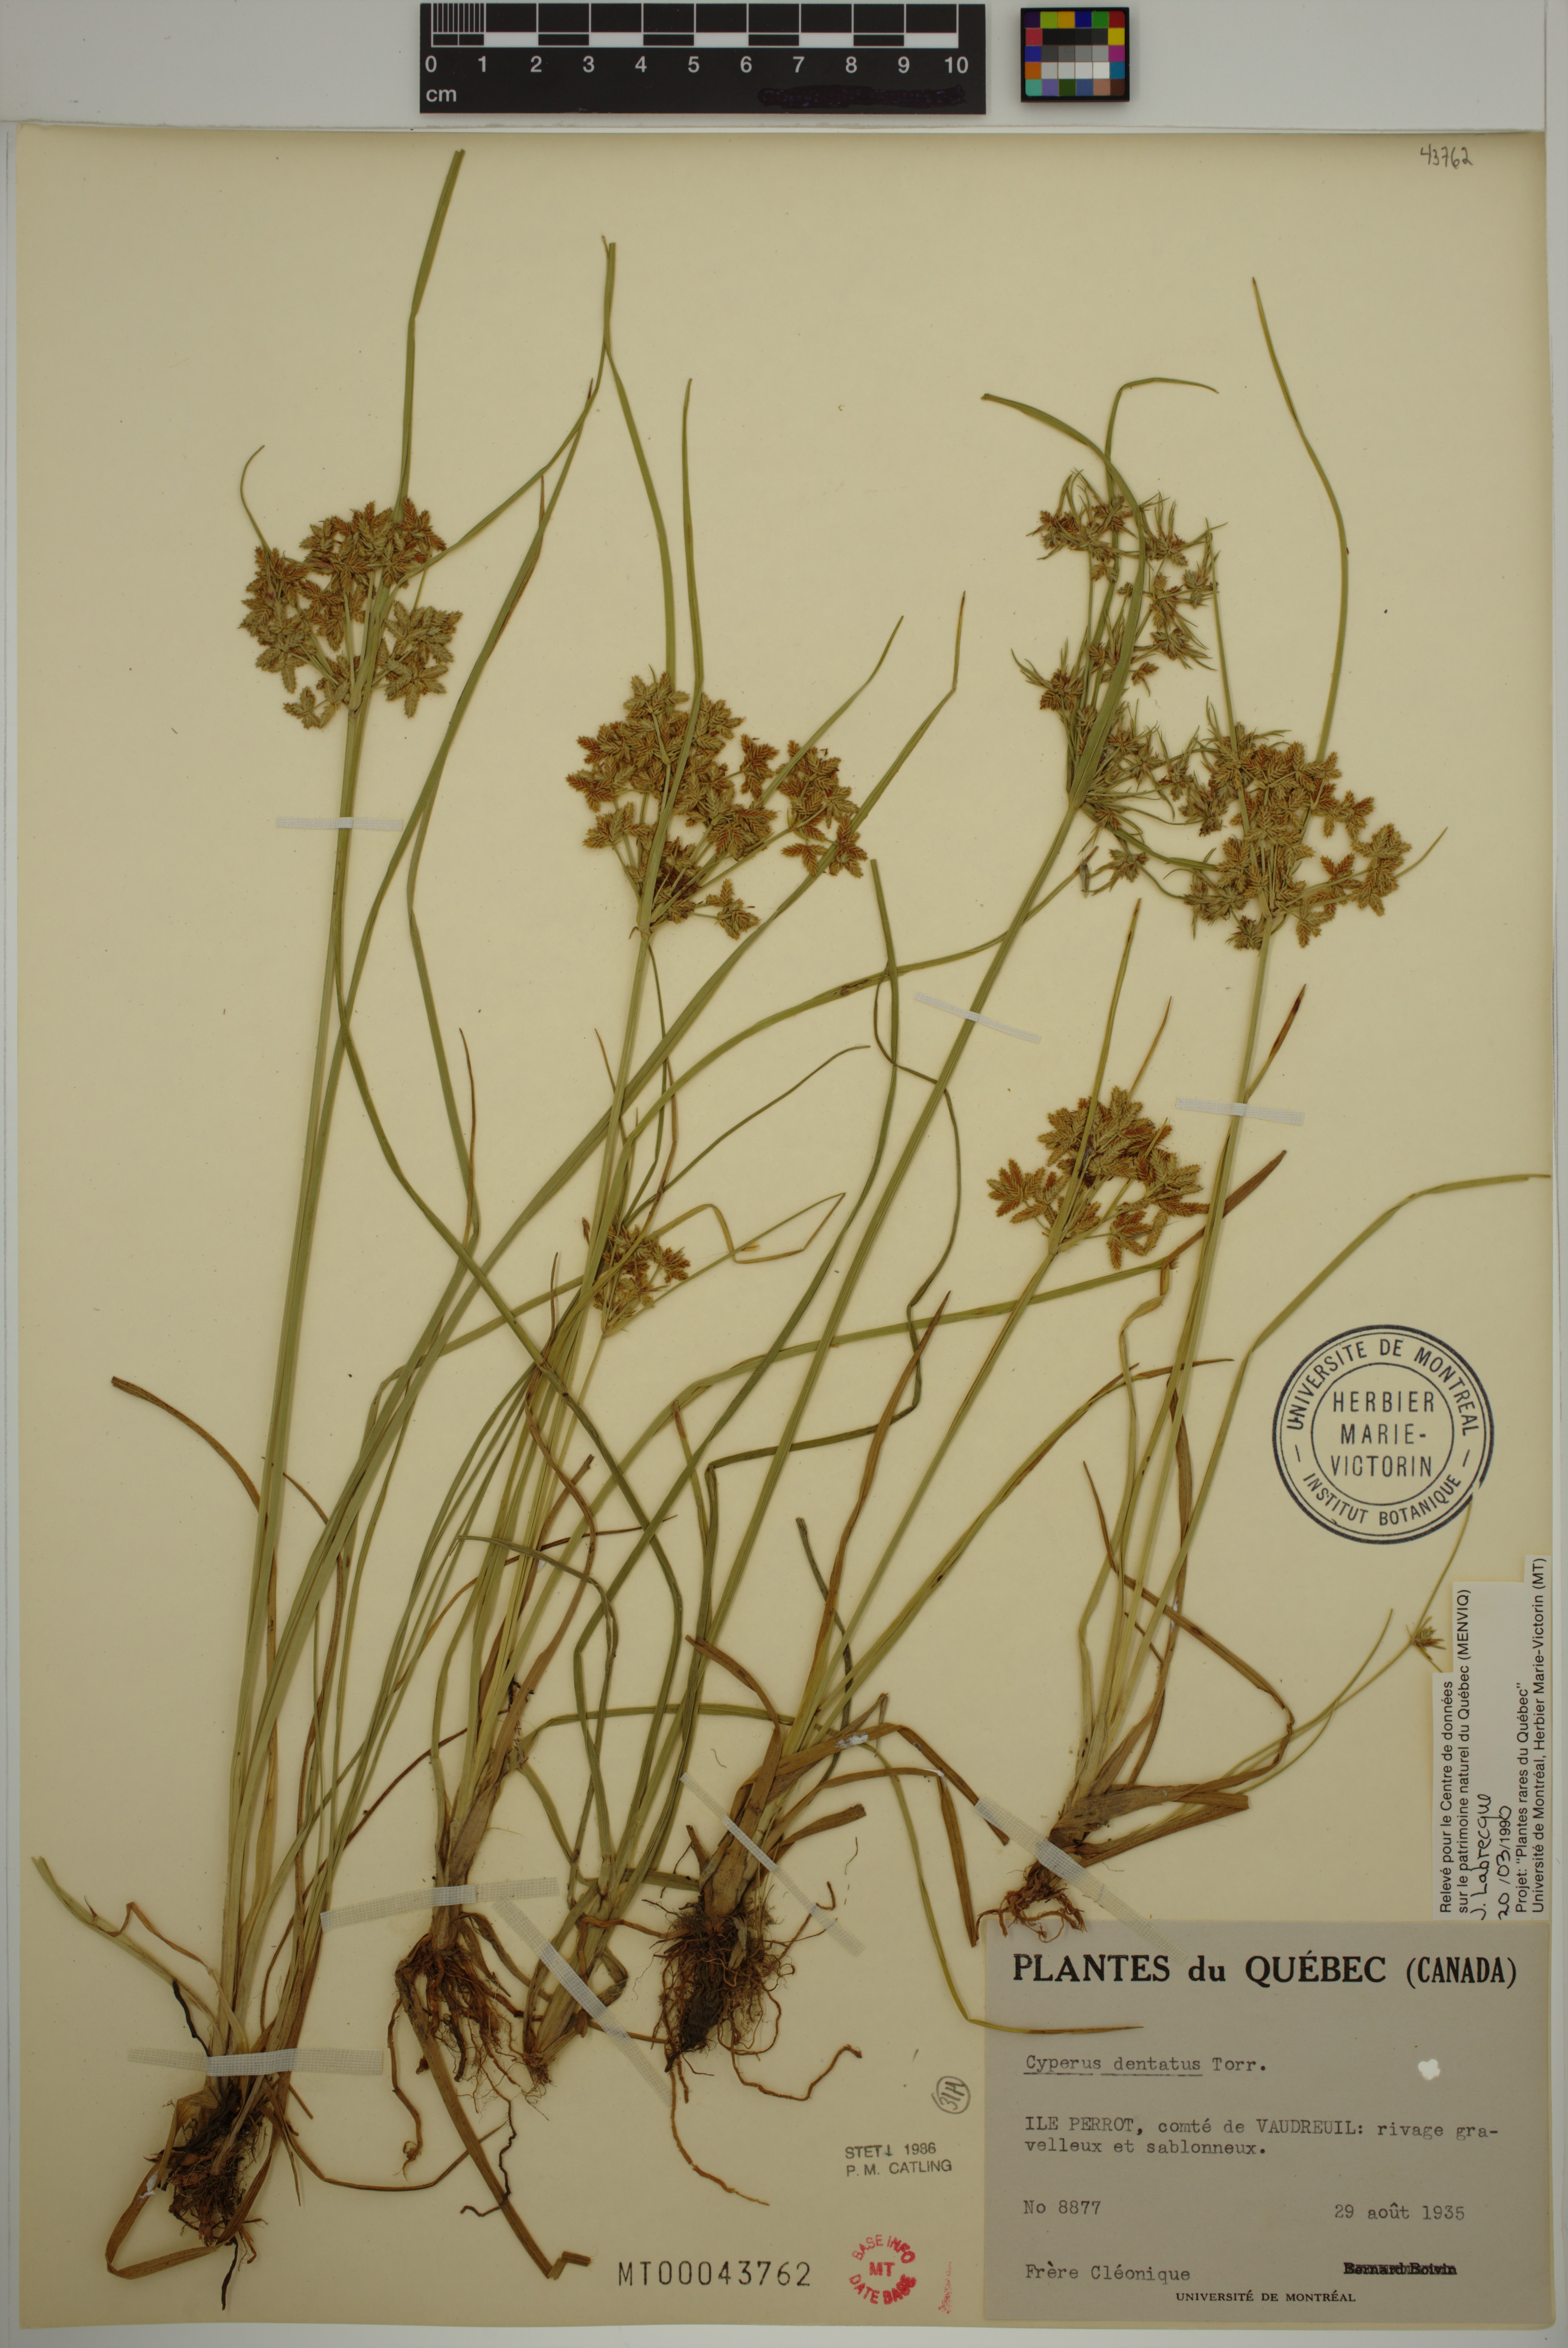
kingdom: Plantae
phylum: Tracheophyta
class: Liliopsida
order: Poales
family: Cyperaceae
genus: Cyperus
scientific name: Cyperus dentatus
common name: Dentate umbrella sedge
